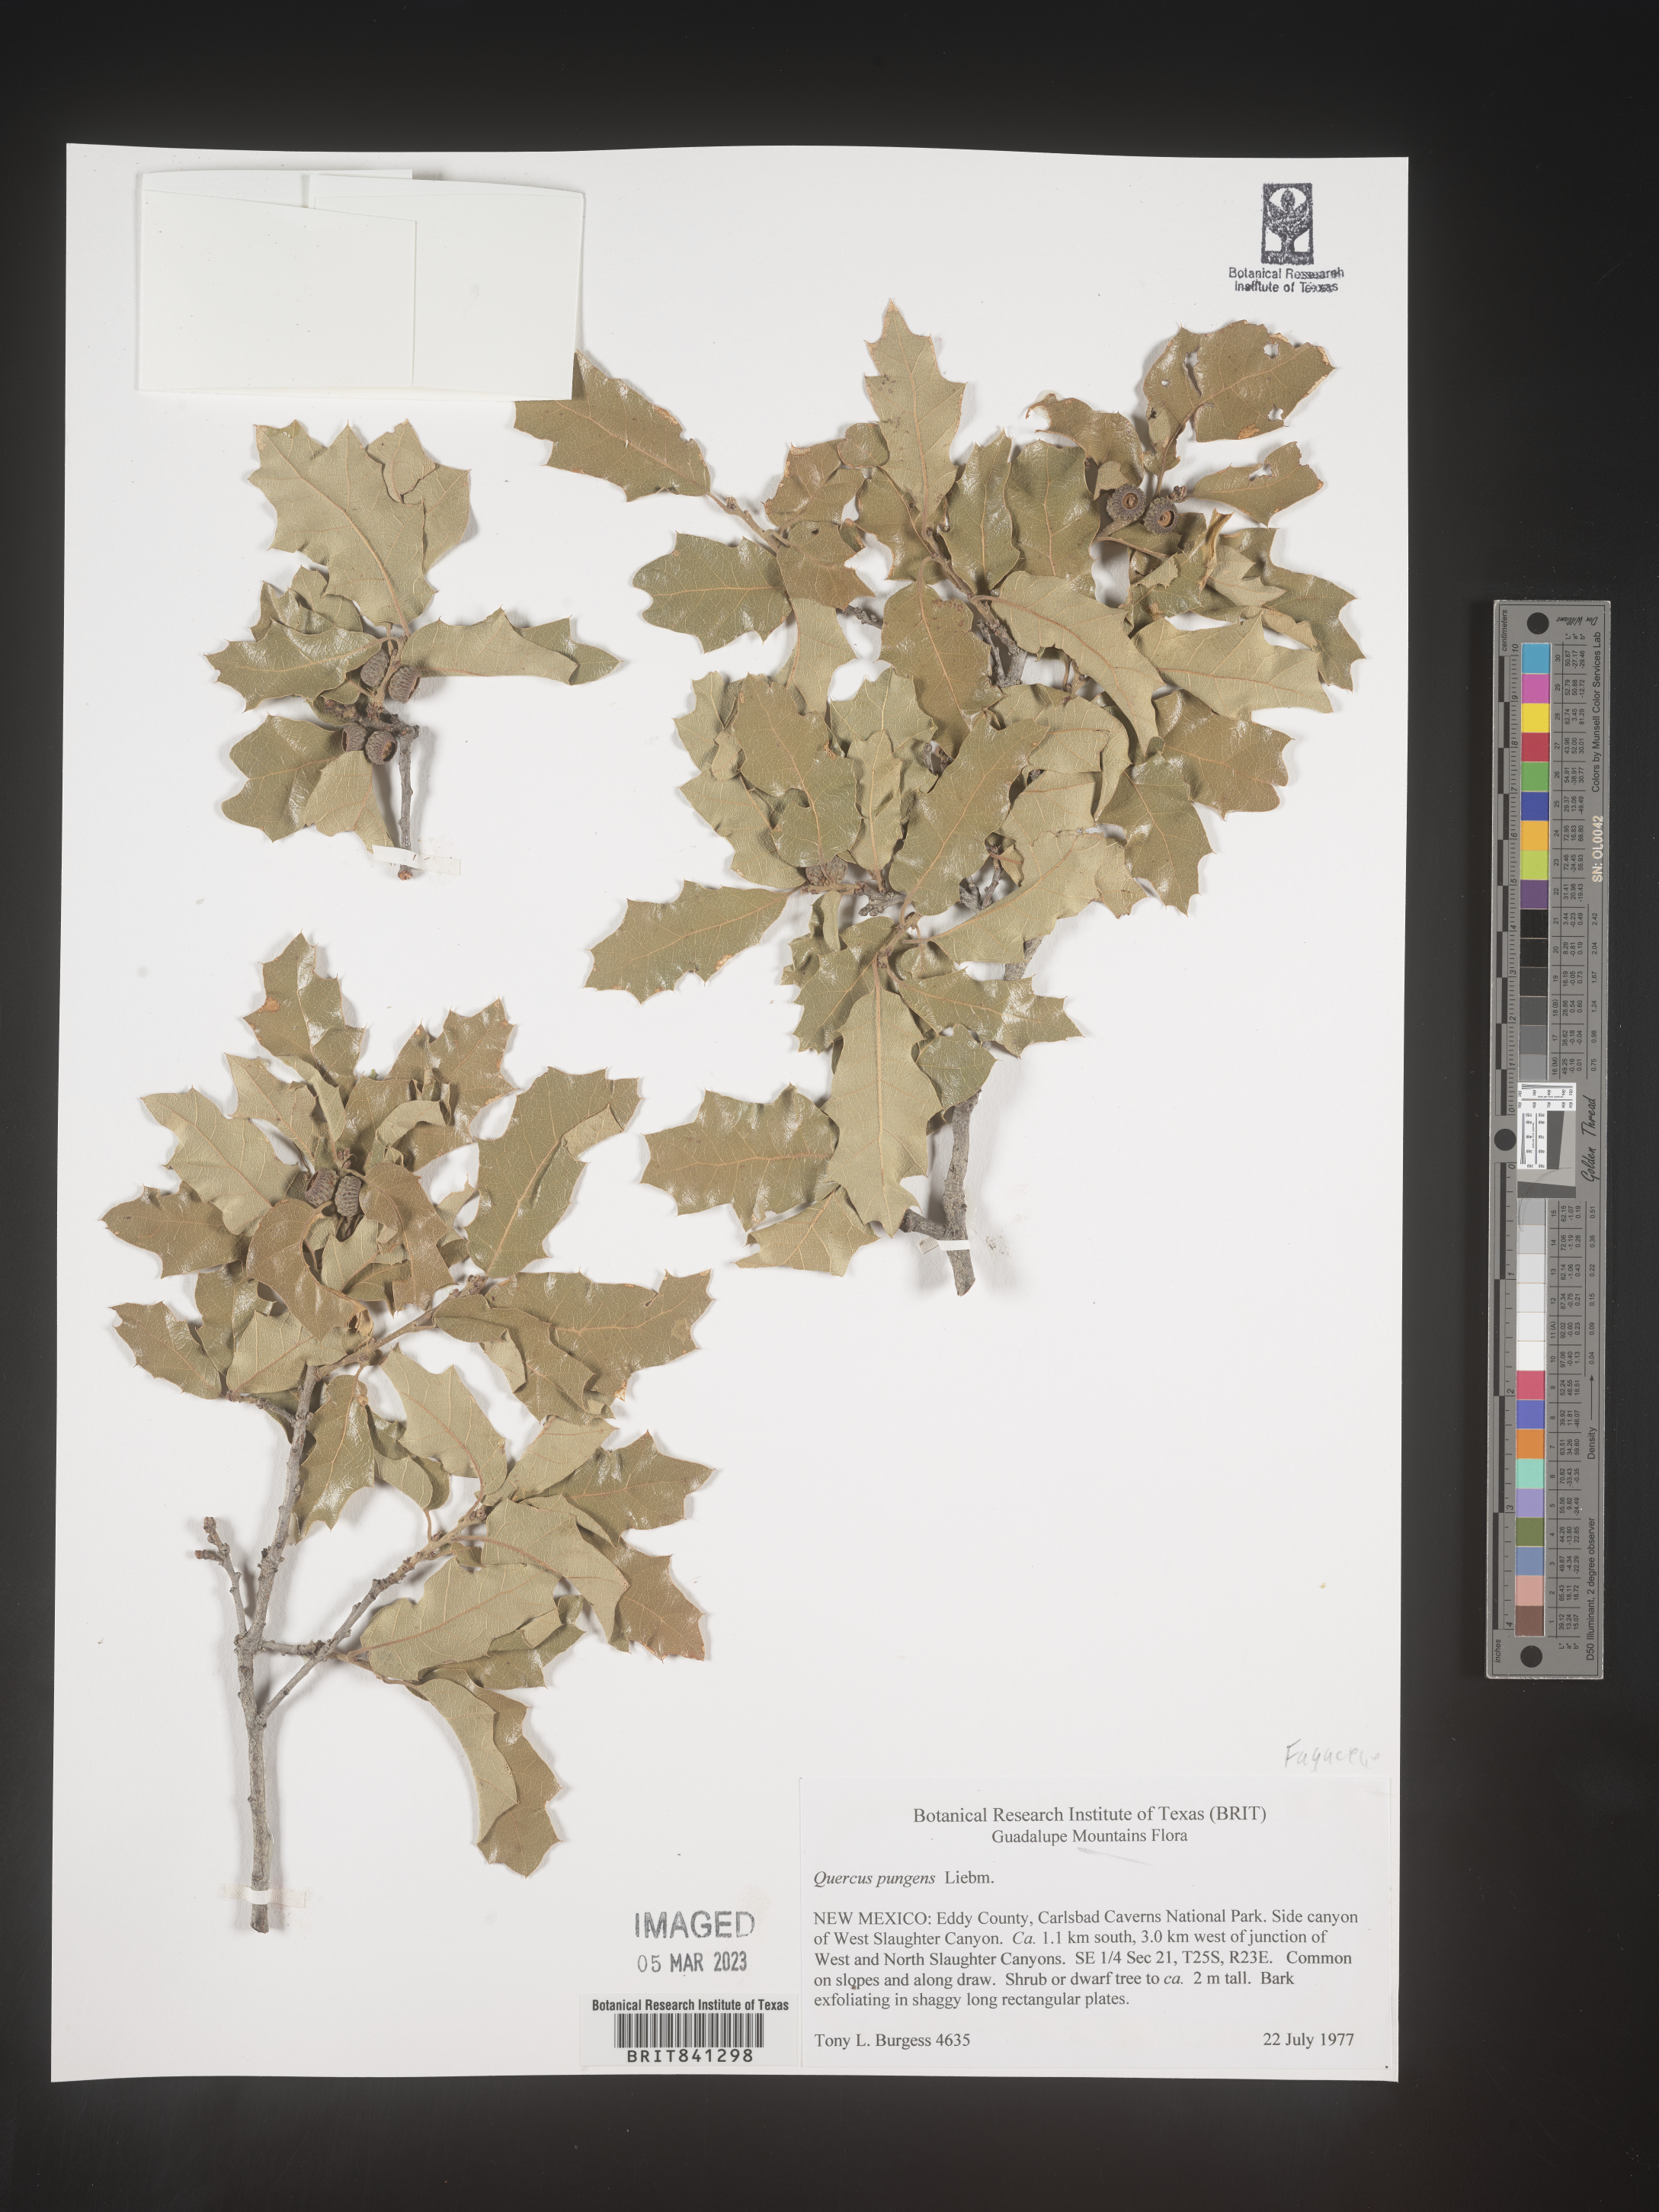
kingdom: Plantae
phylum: Tracheophyta
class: Magnoliopsida
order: Fagales
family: Fagaceae
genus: Quercus
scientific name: Quercus pungens
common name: Pungent oak
